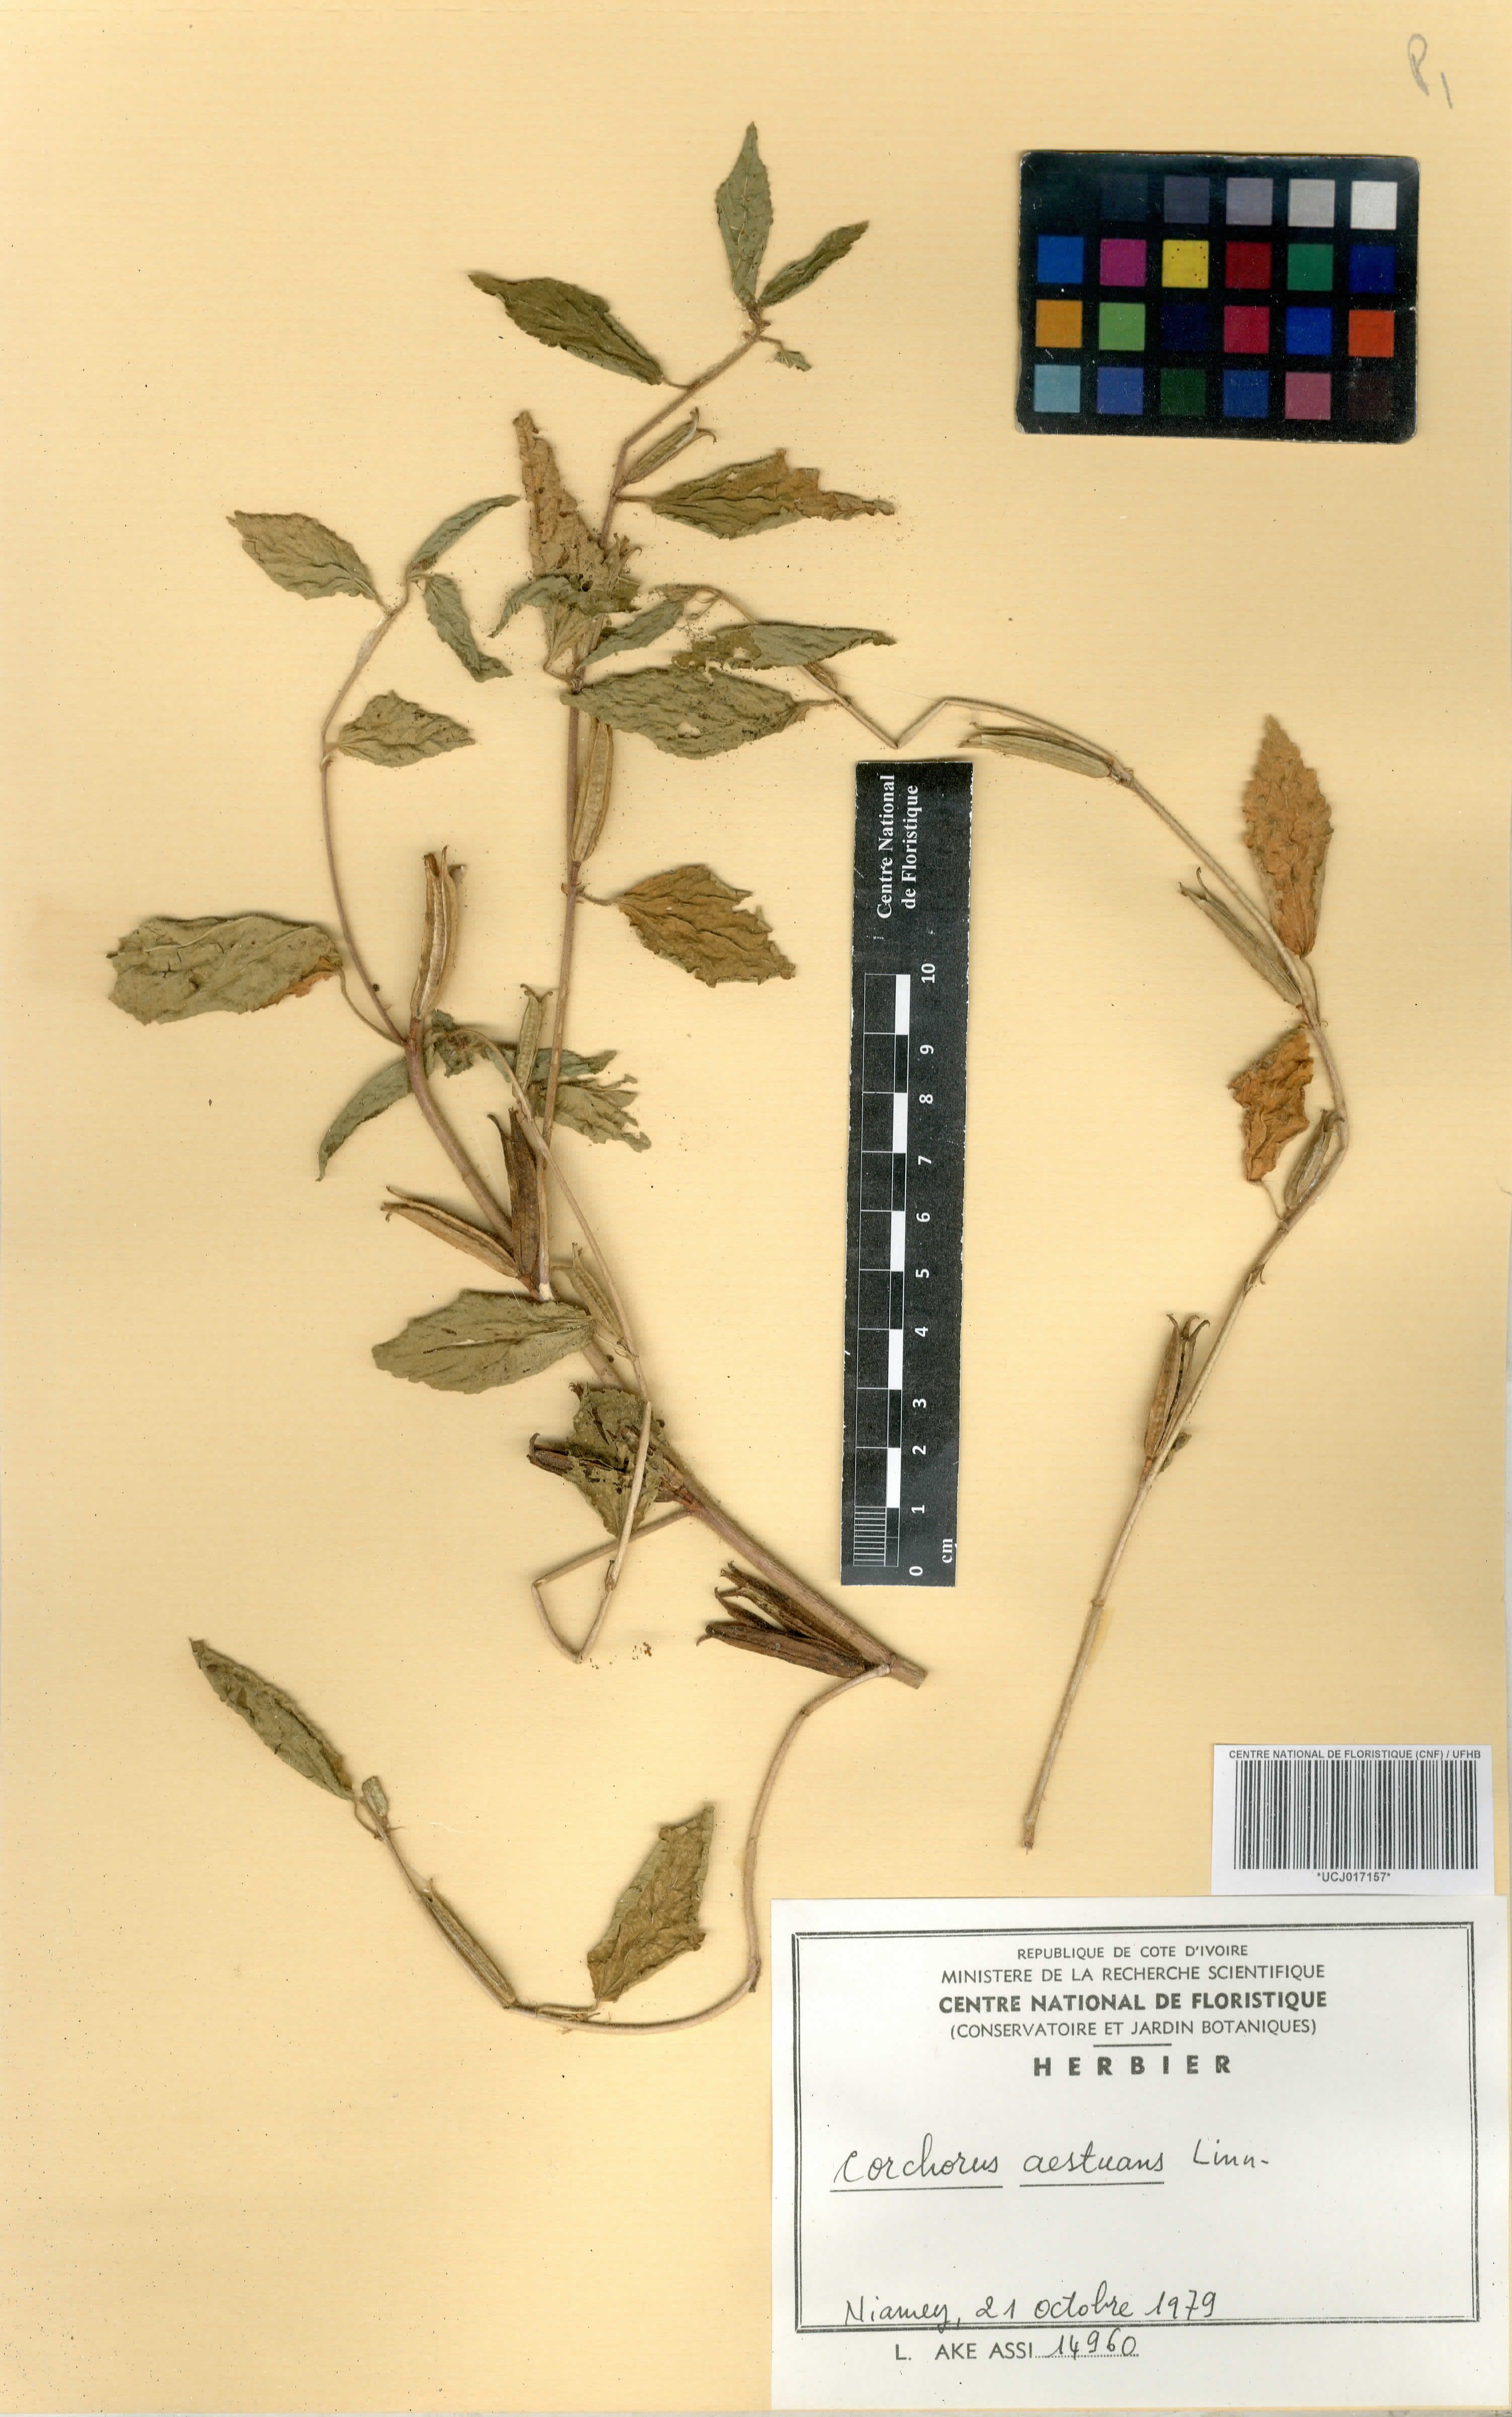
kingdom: Plantae
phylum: Tracheophyta
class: Magnoliopsida
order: Malvales
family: Malvaceae
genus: Corchorus
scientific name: Corchorus aestuans
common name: Jute
